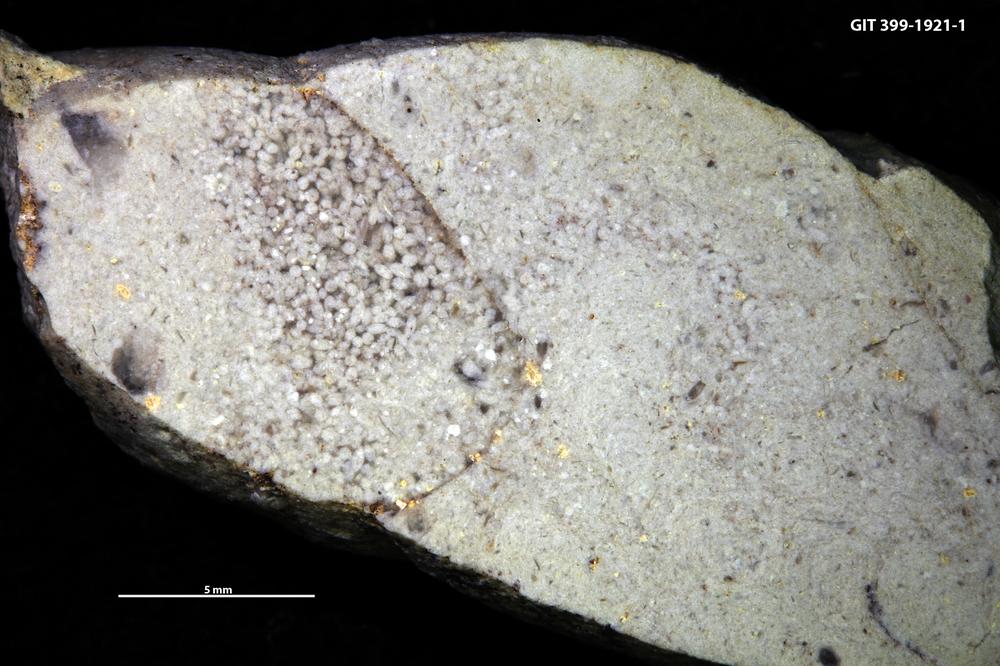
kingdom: Animalia
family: Coprulidae
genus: Coprulus
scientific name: Coprulus
